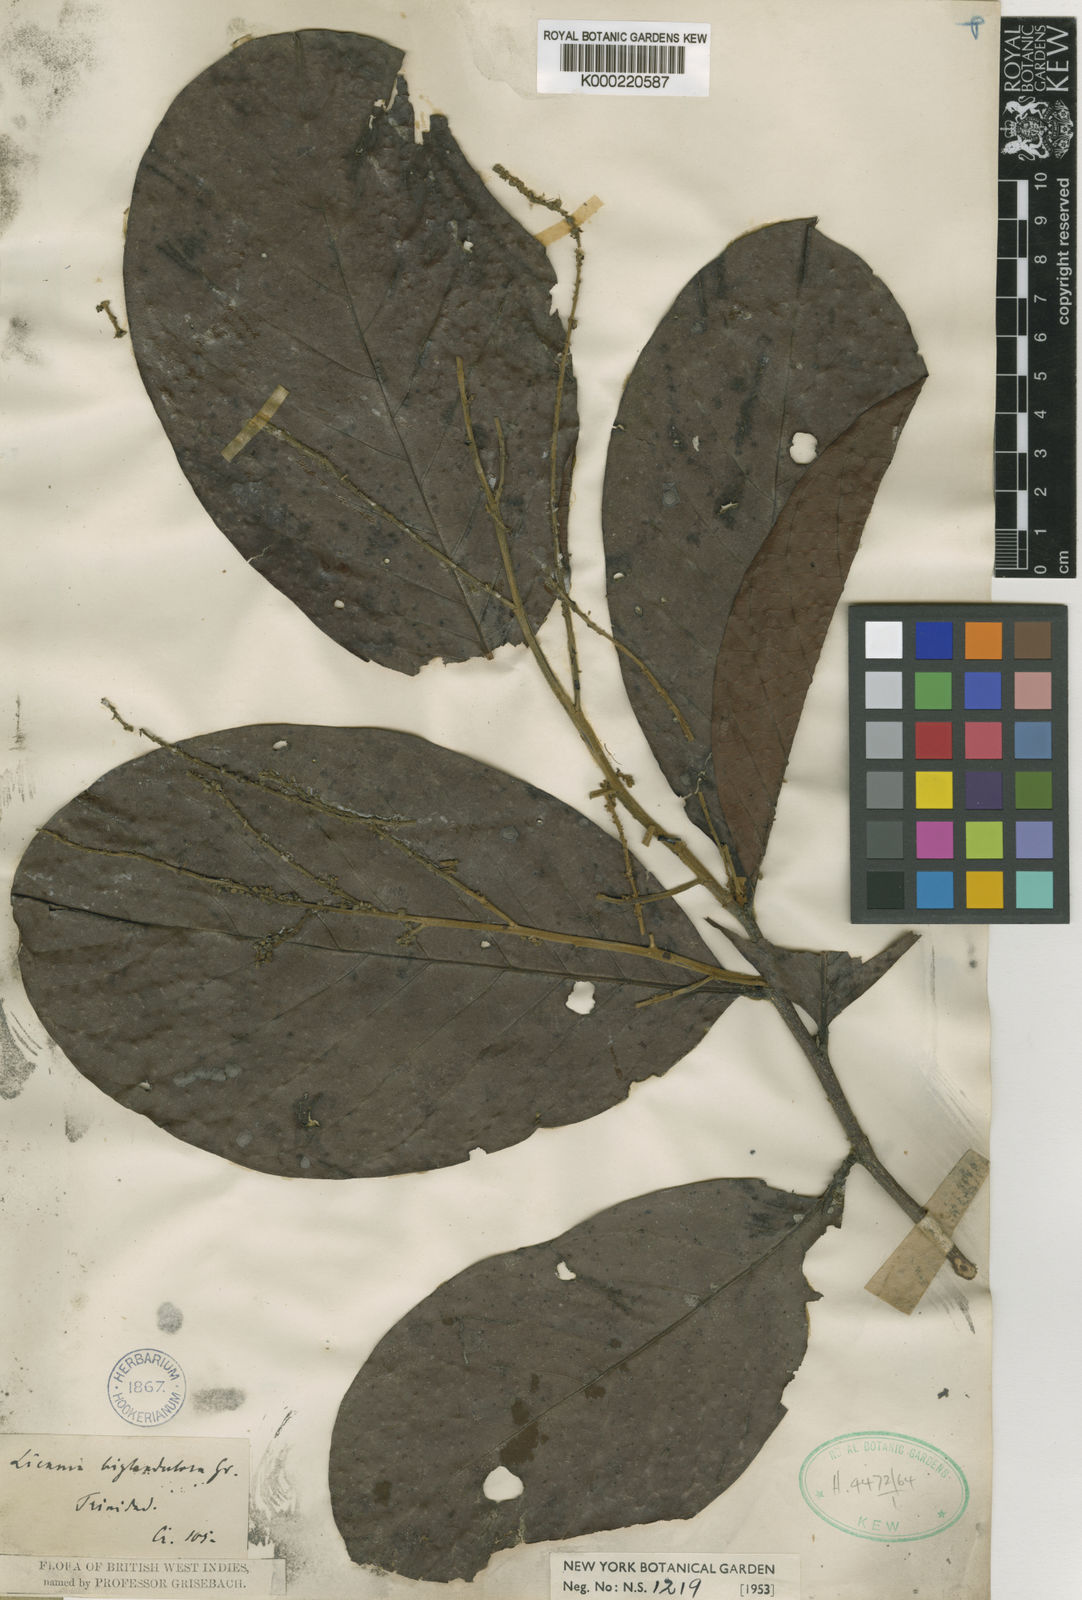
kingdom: Plantae
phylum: Tracheophyta
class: Magnoliopsida
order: Malpighiales
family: Chrysobalanaceae
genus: Hymenopus
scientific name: Hymenopus heteromorphus
